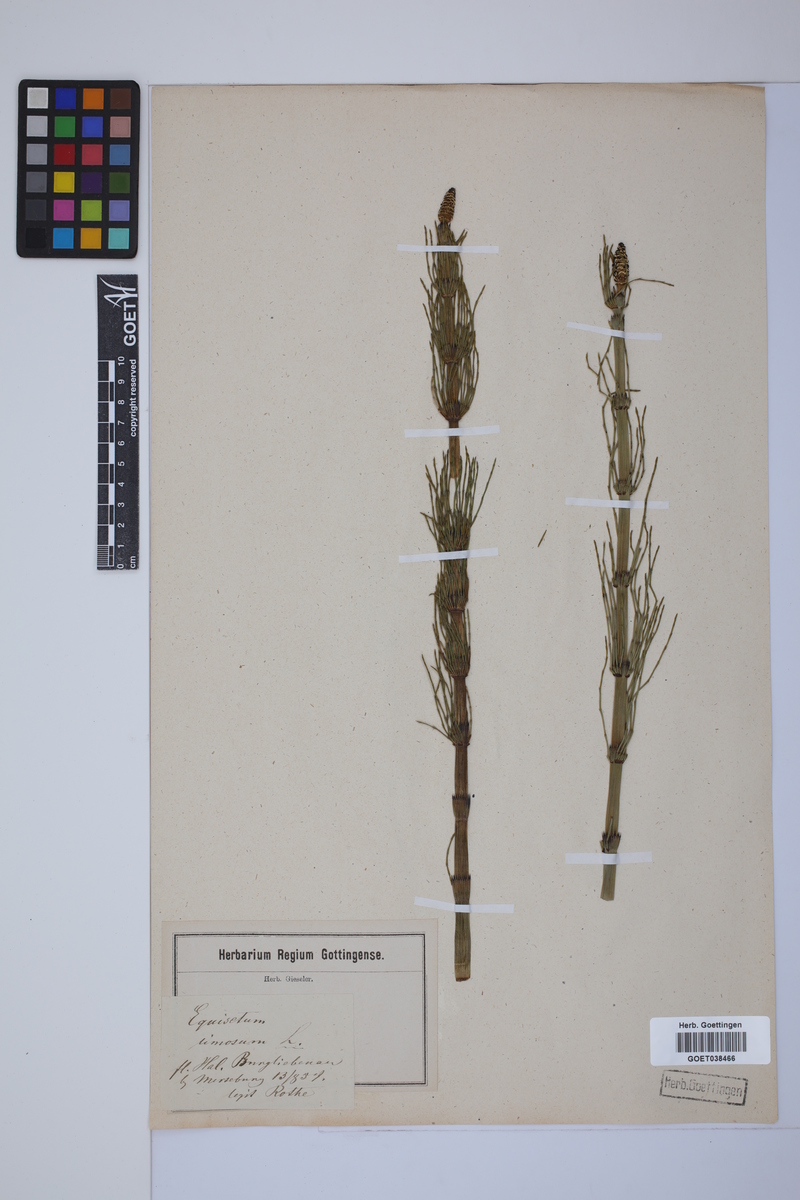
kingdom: Plantae
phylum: Tracheophyta
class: Polypodiopsida
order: Equisetales
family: Equisetaceae
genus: Equisetum
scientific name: Equisetum fluviatile
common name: Water horsetail
